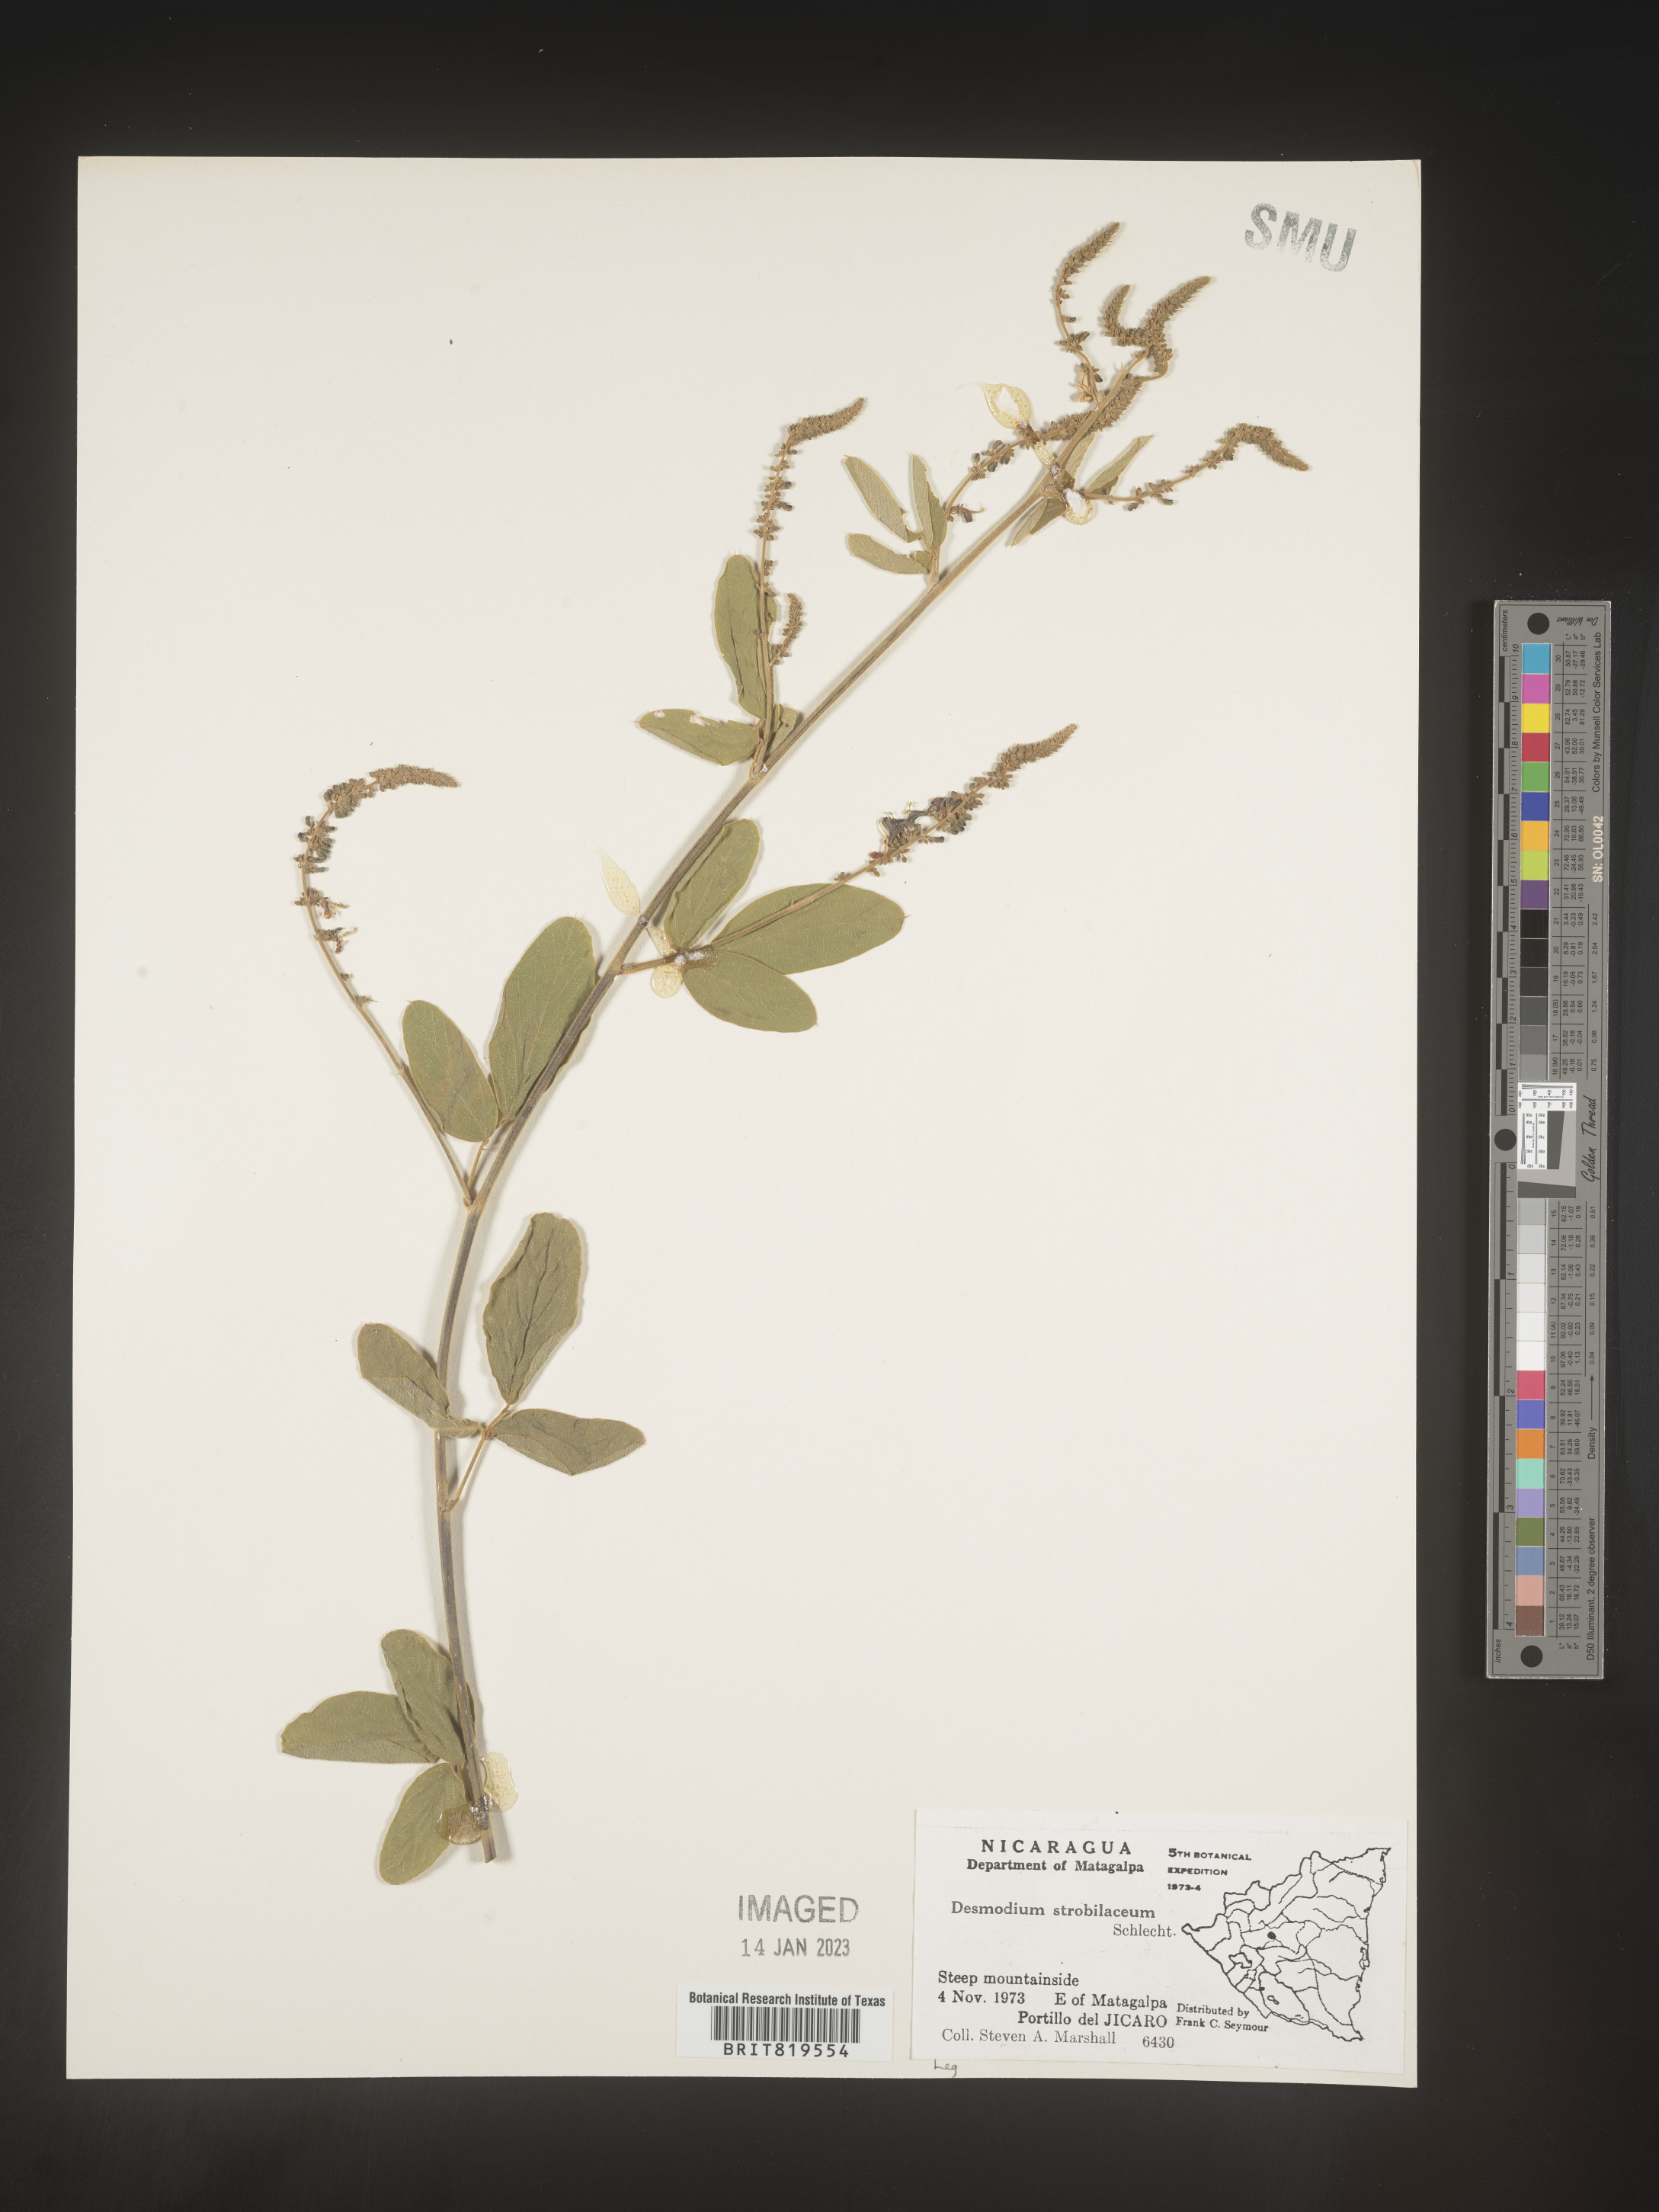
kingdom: Plantae
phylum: Tracheophyta
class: Magnoliopsida
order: Fabales
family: Fabaceae
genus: Desmodium
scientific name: Desmodium
